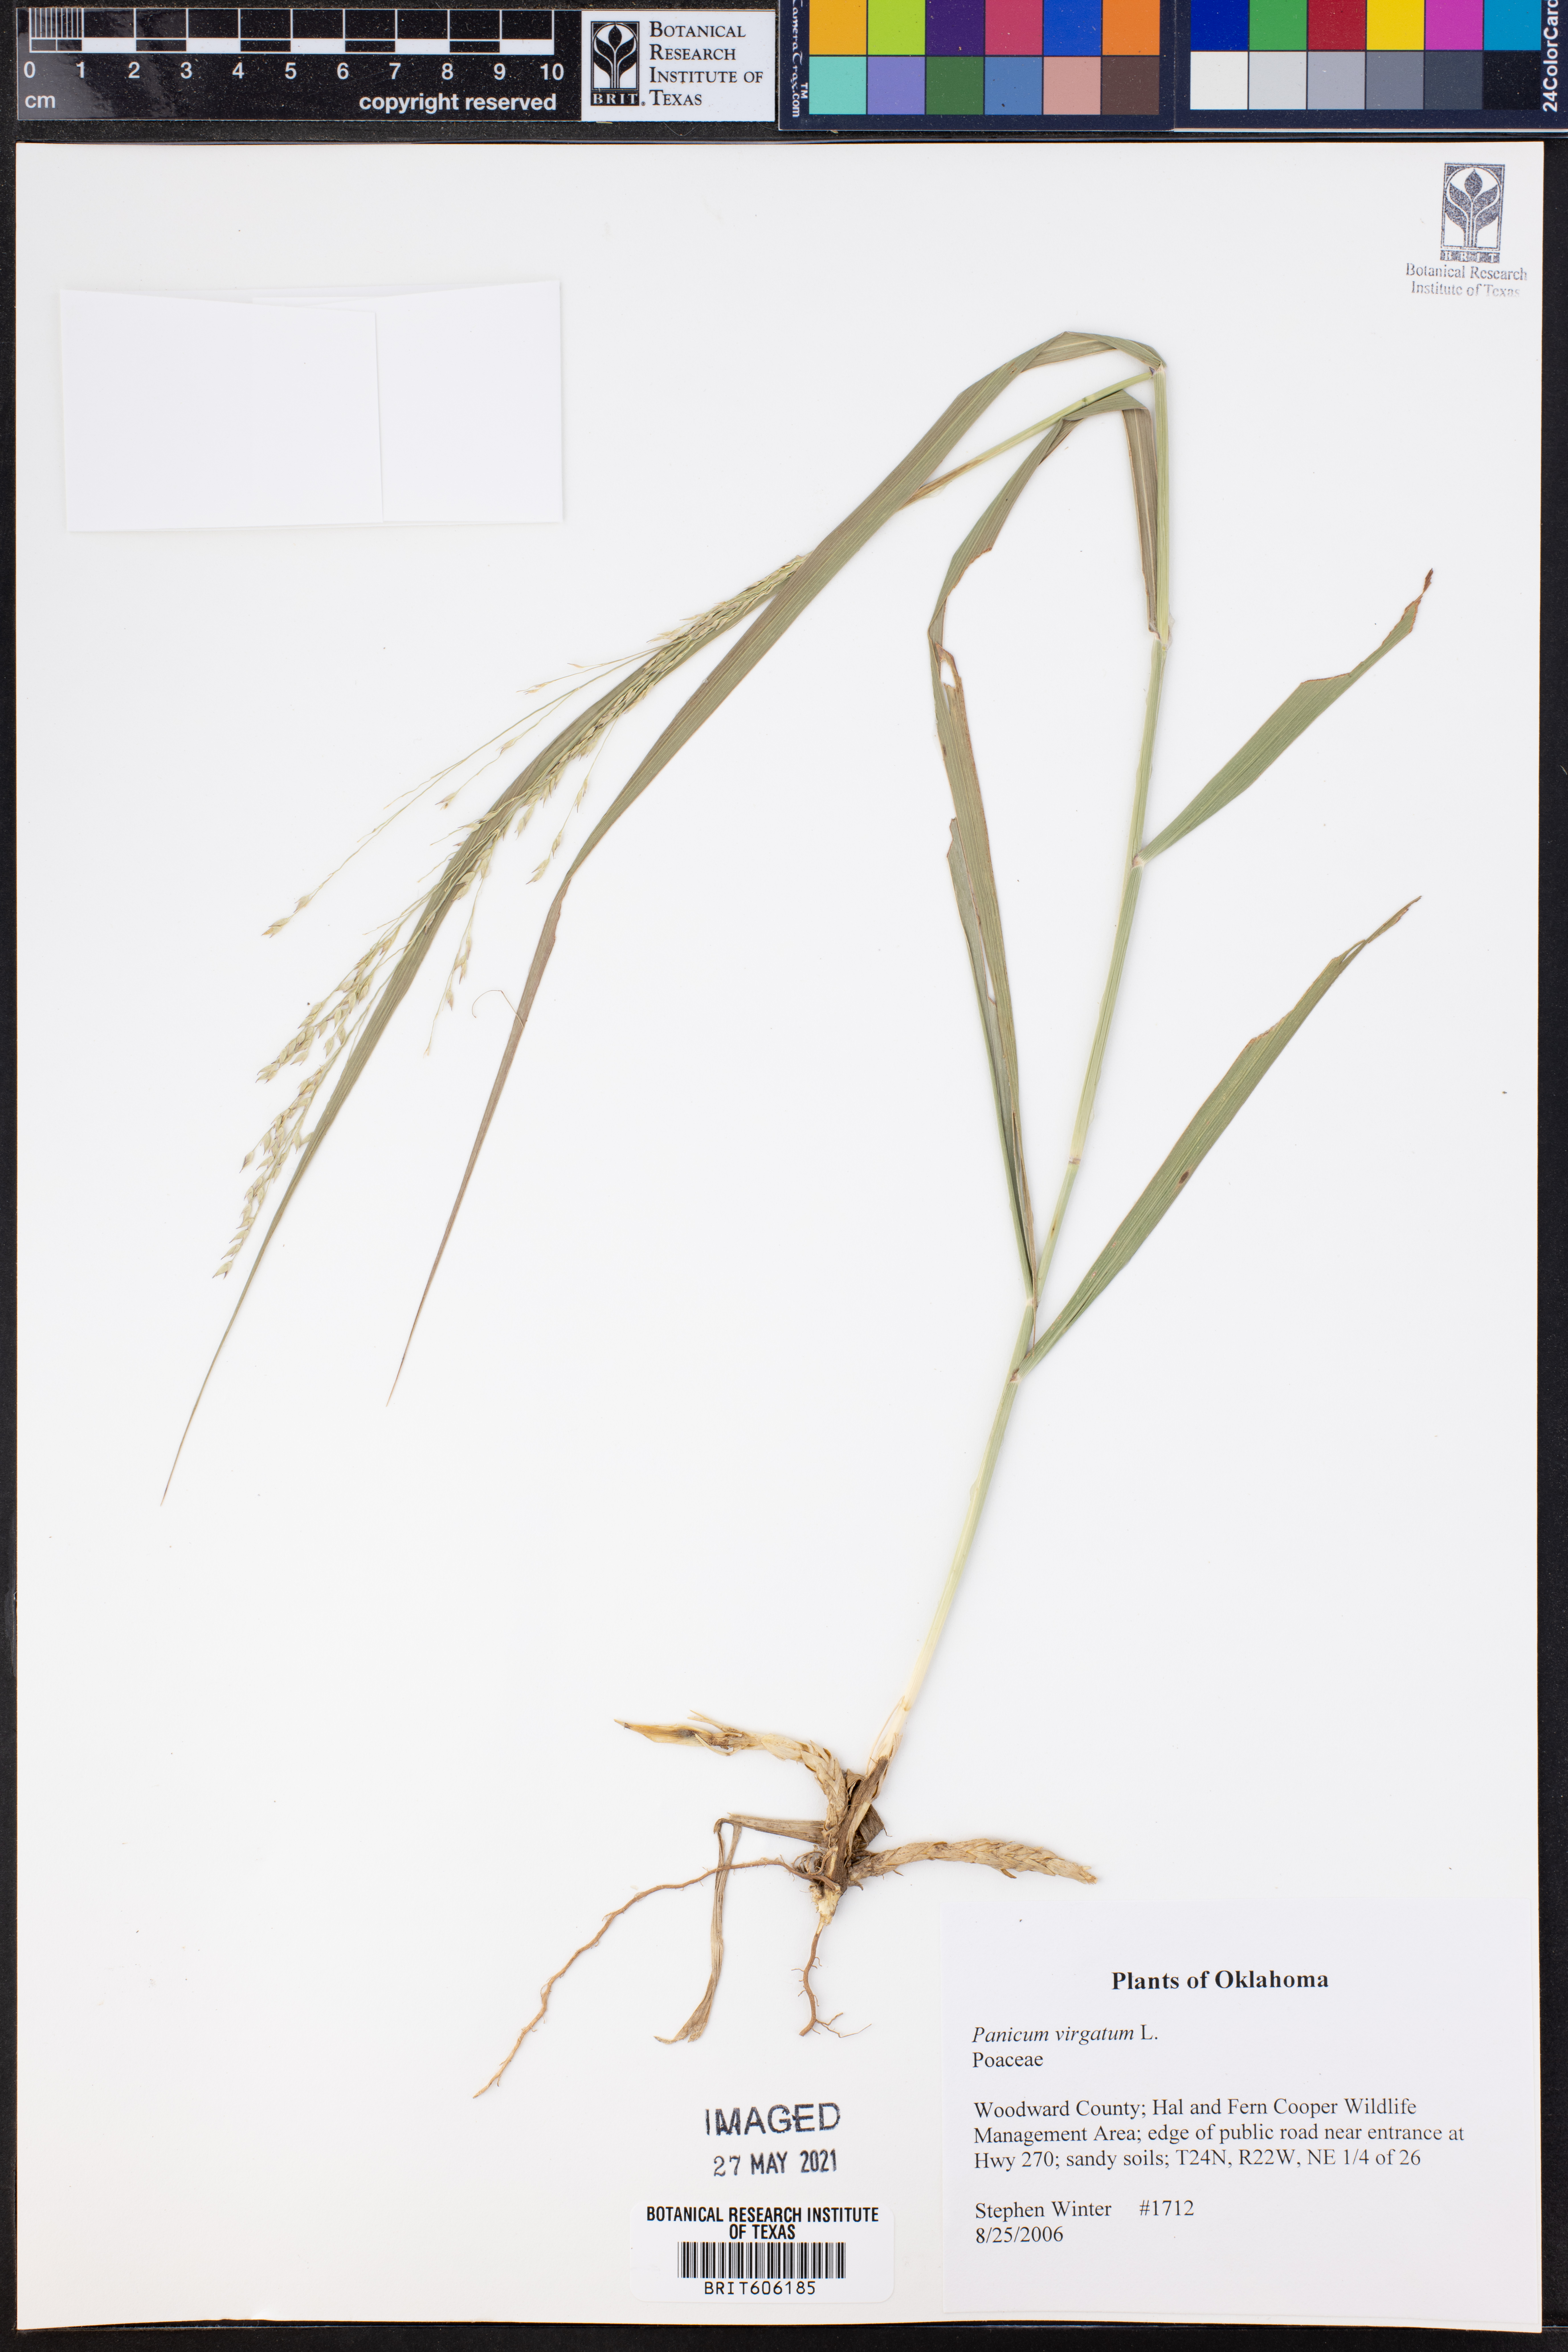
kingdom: Plantae
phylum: Tracheophyta
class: Liliopsida
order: Poales
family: Poaceae
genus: Panicum
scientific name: Panicum virgatum
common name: Switchgrass
